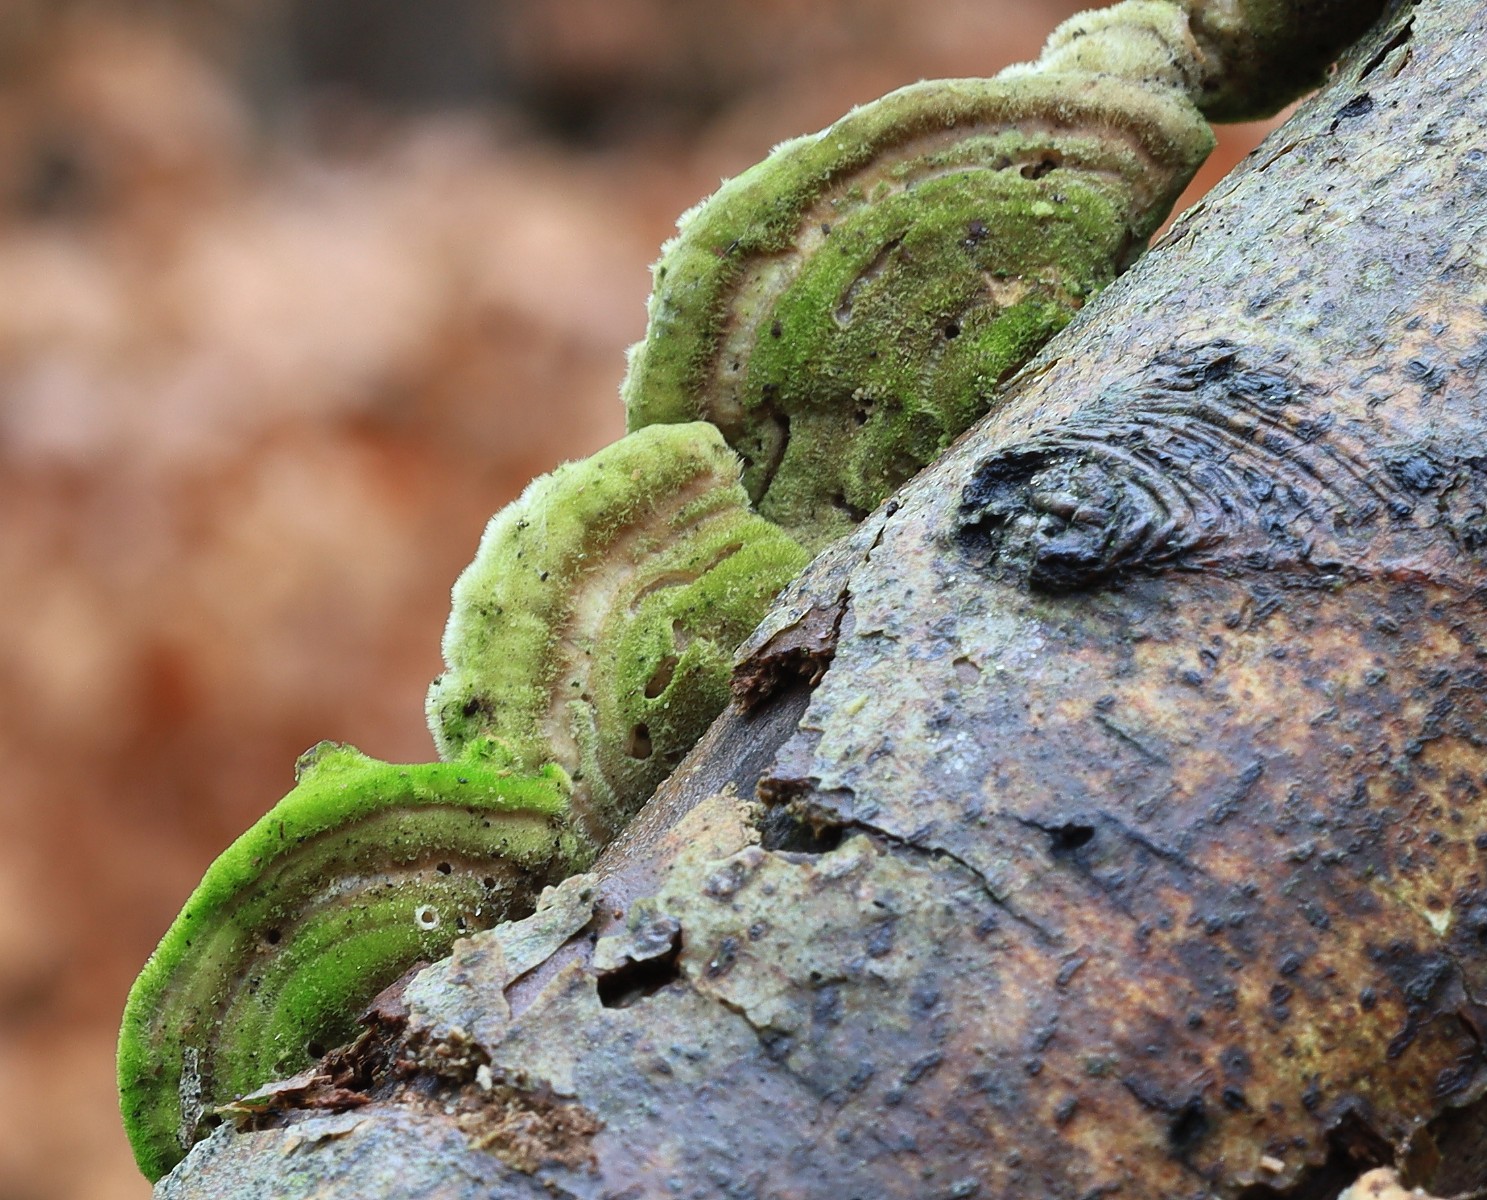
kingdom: Fungi
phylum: Basidiomycota
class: Agaricomycetes
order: Polyporales
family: Polyporaceae
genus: Trametes
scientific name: Trametes hirsuta
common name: håret læderporesvamp
